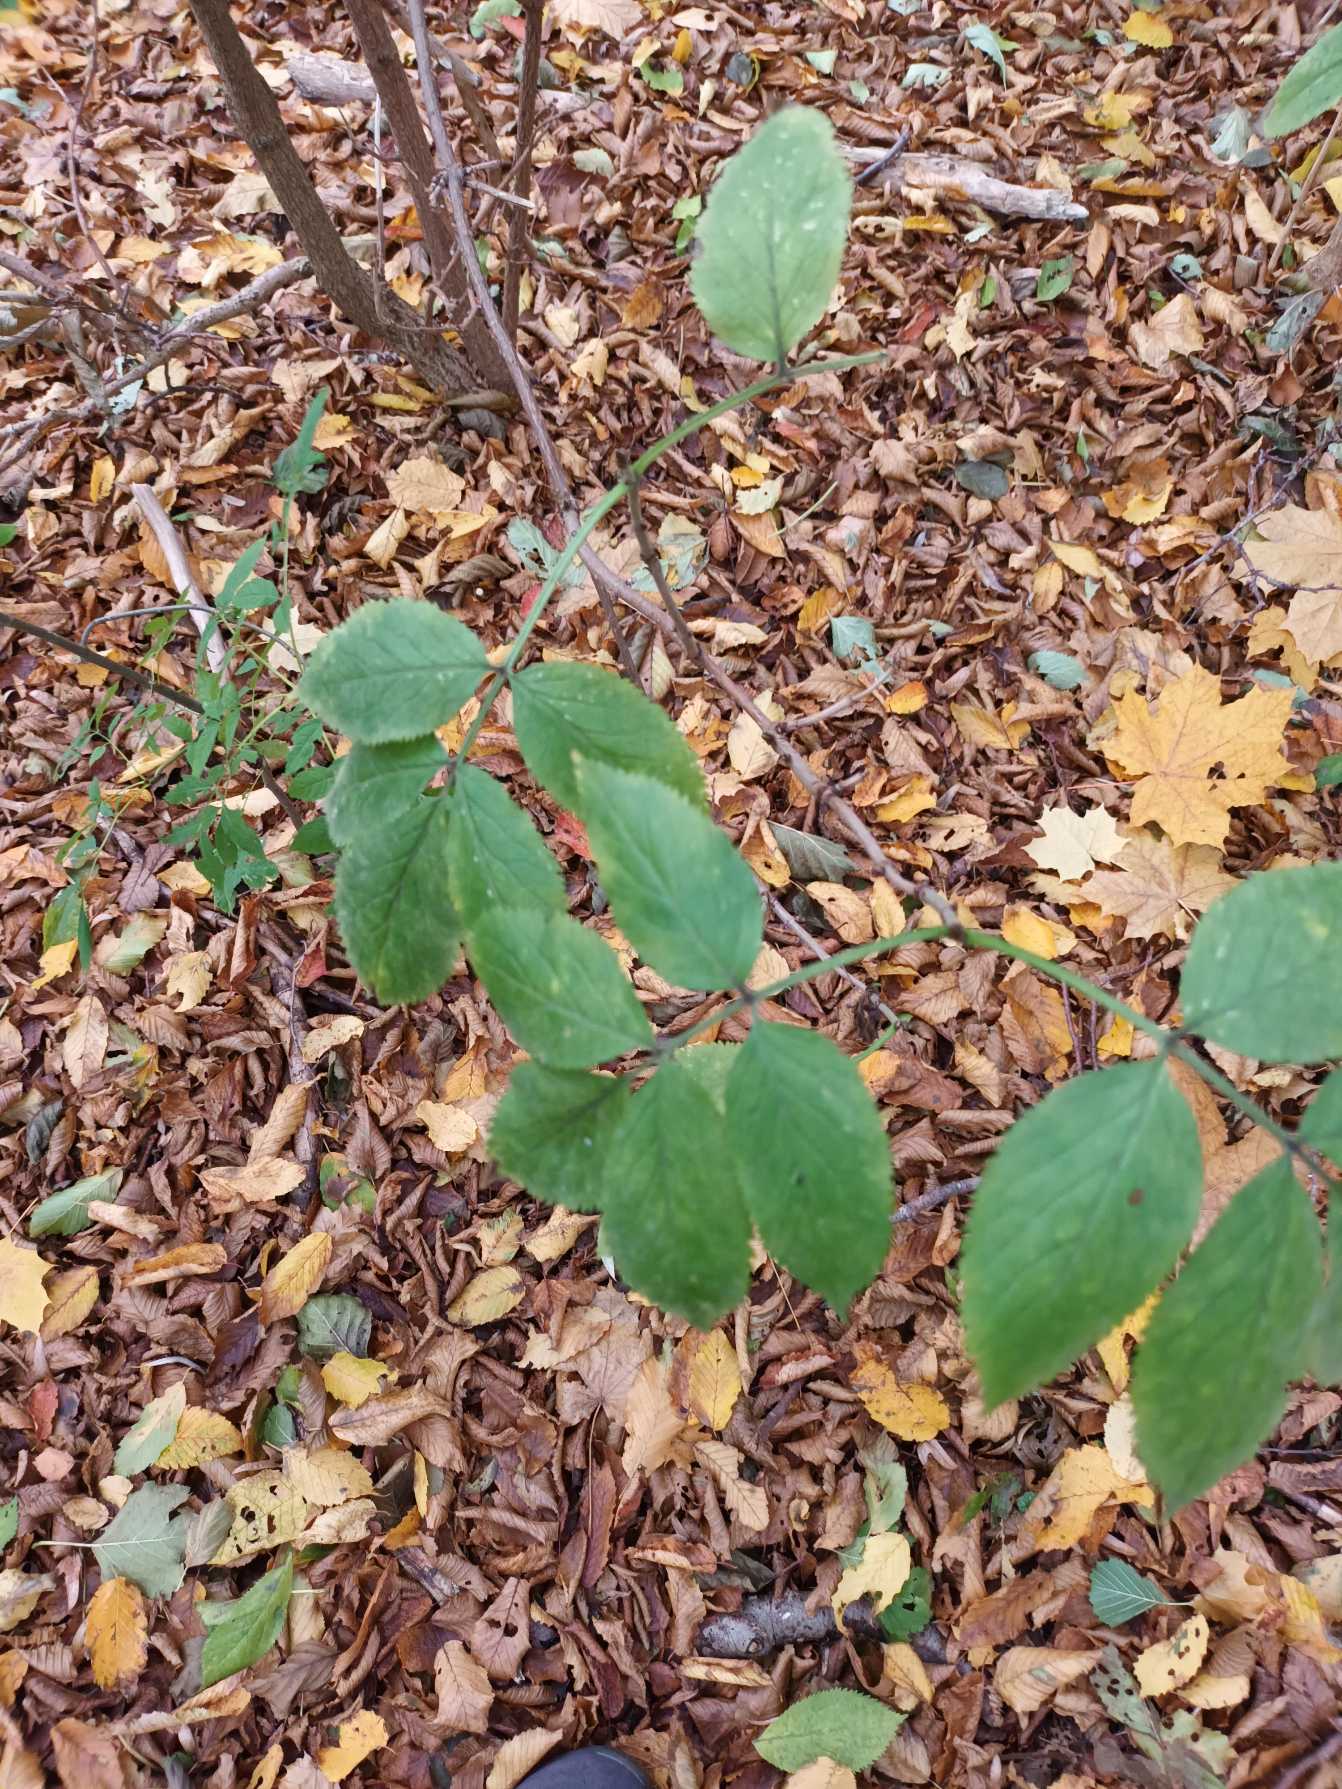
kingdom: Plantae
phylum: Tracheophyta
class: Magnoliopsida
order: Dipsacales
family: Viburnaceae
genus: Sambucus
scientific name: Sambucus nigra
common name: Almindelig hyld
